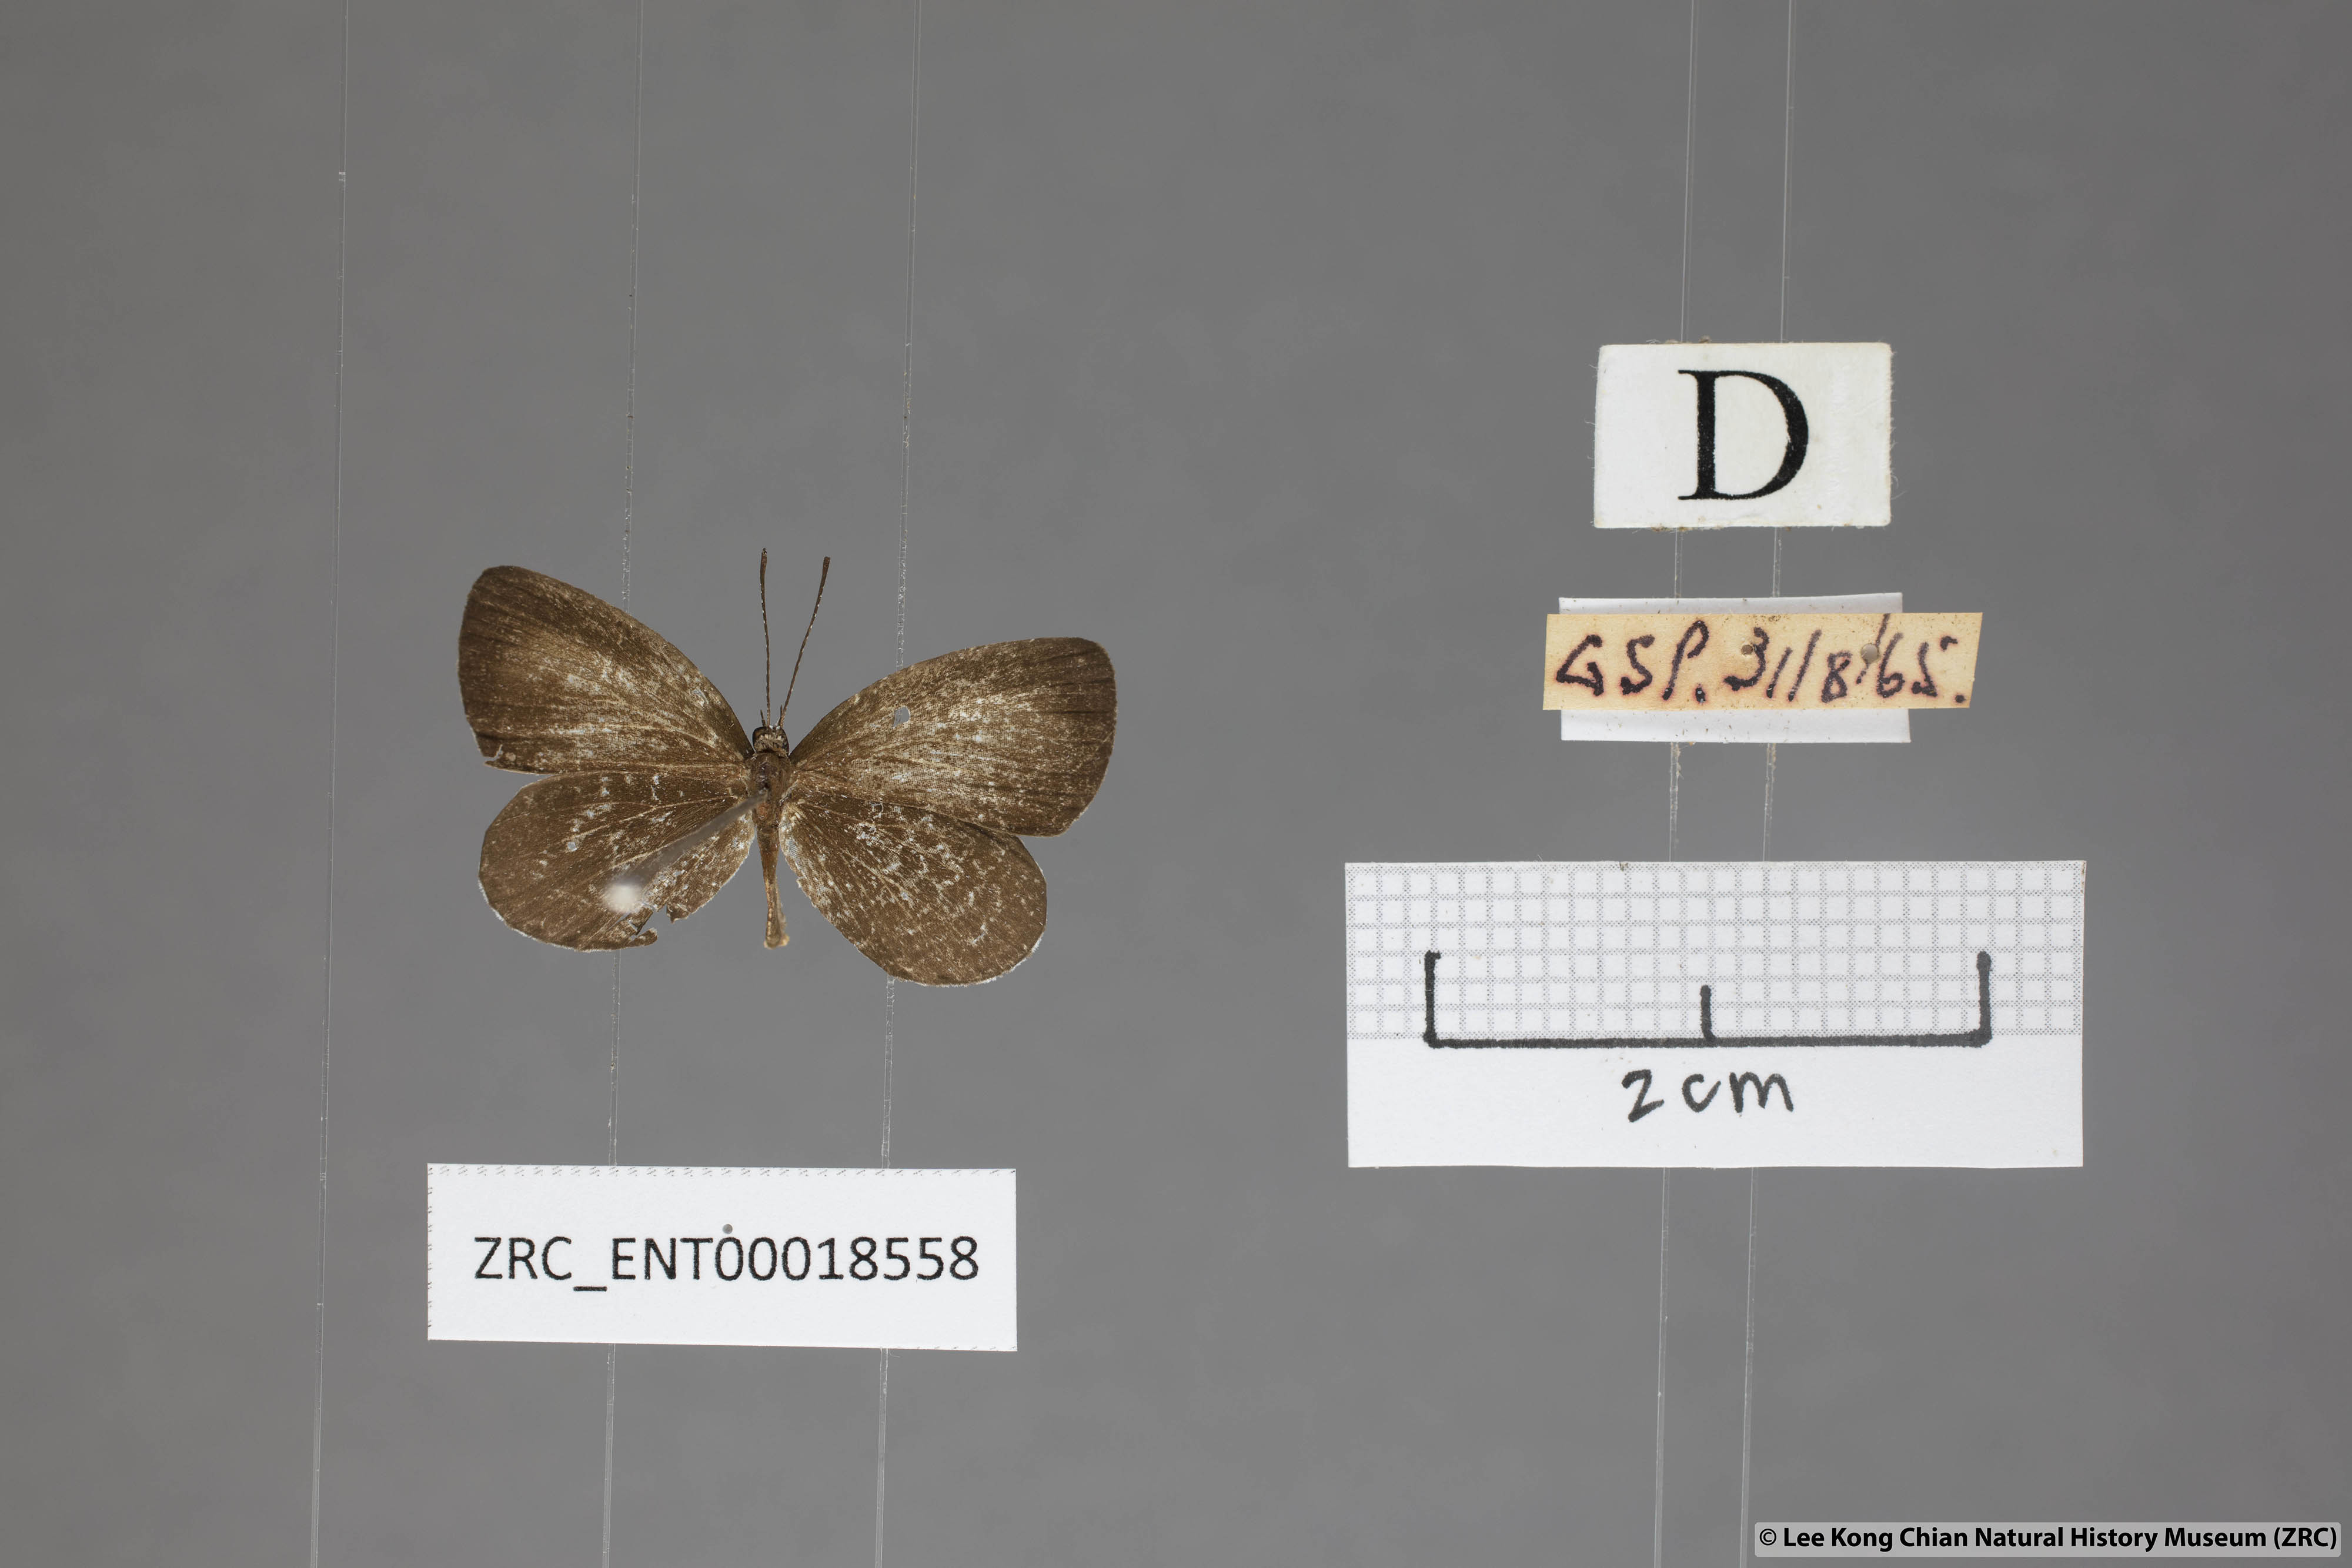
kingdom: Animalia
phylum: Arthropoda
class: Insecta
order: Lepidoptera
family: Lycaenidae
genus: Pithecops
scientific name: Pithecops corvus
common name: Forest quaker
